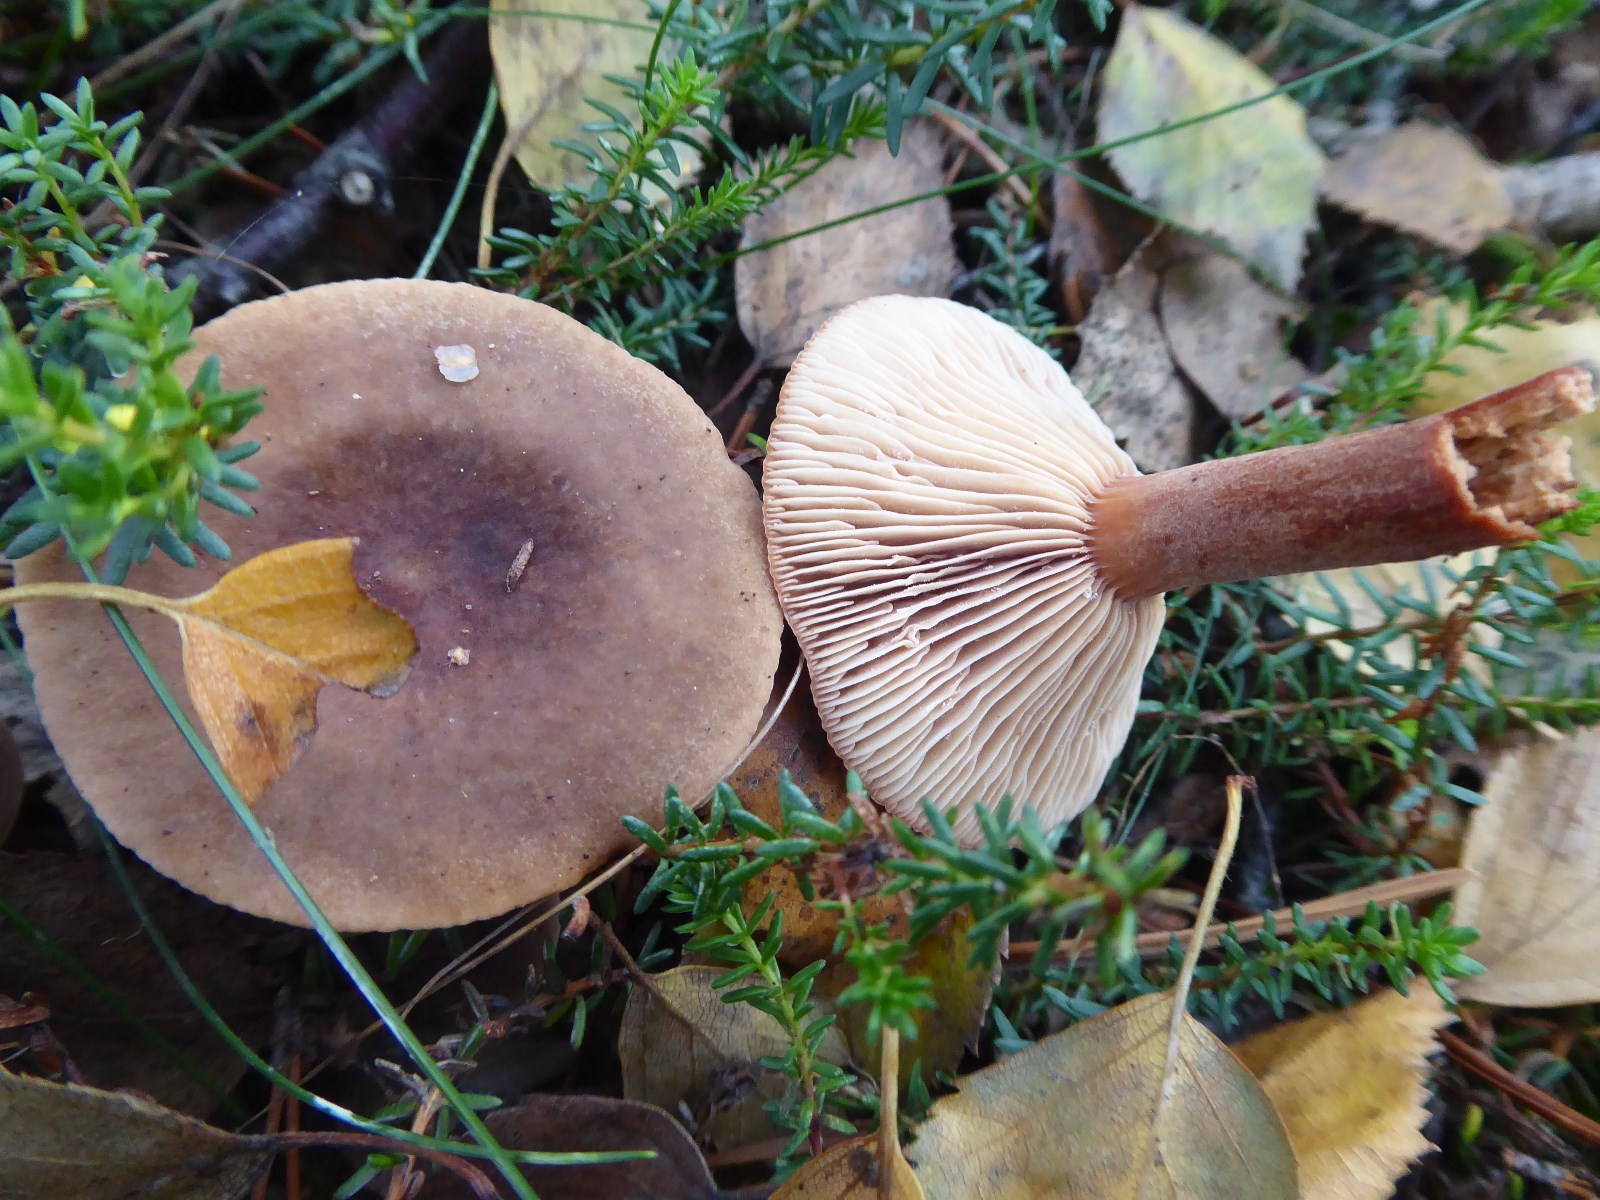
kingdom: Fungi
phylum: Basidiomycota
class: Agaricomycetes
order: Russulales
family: Russulaceae
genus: Lactarius
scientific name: Lactarius hepaticus
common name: leverbrun mælkehat
